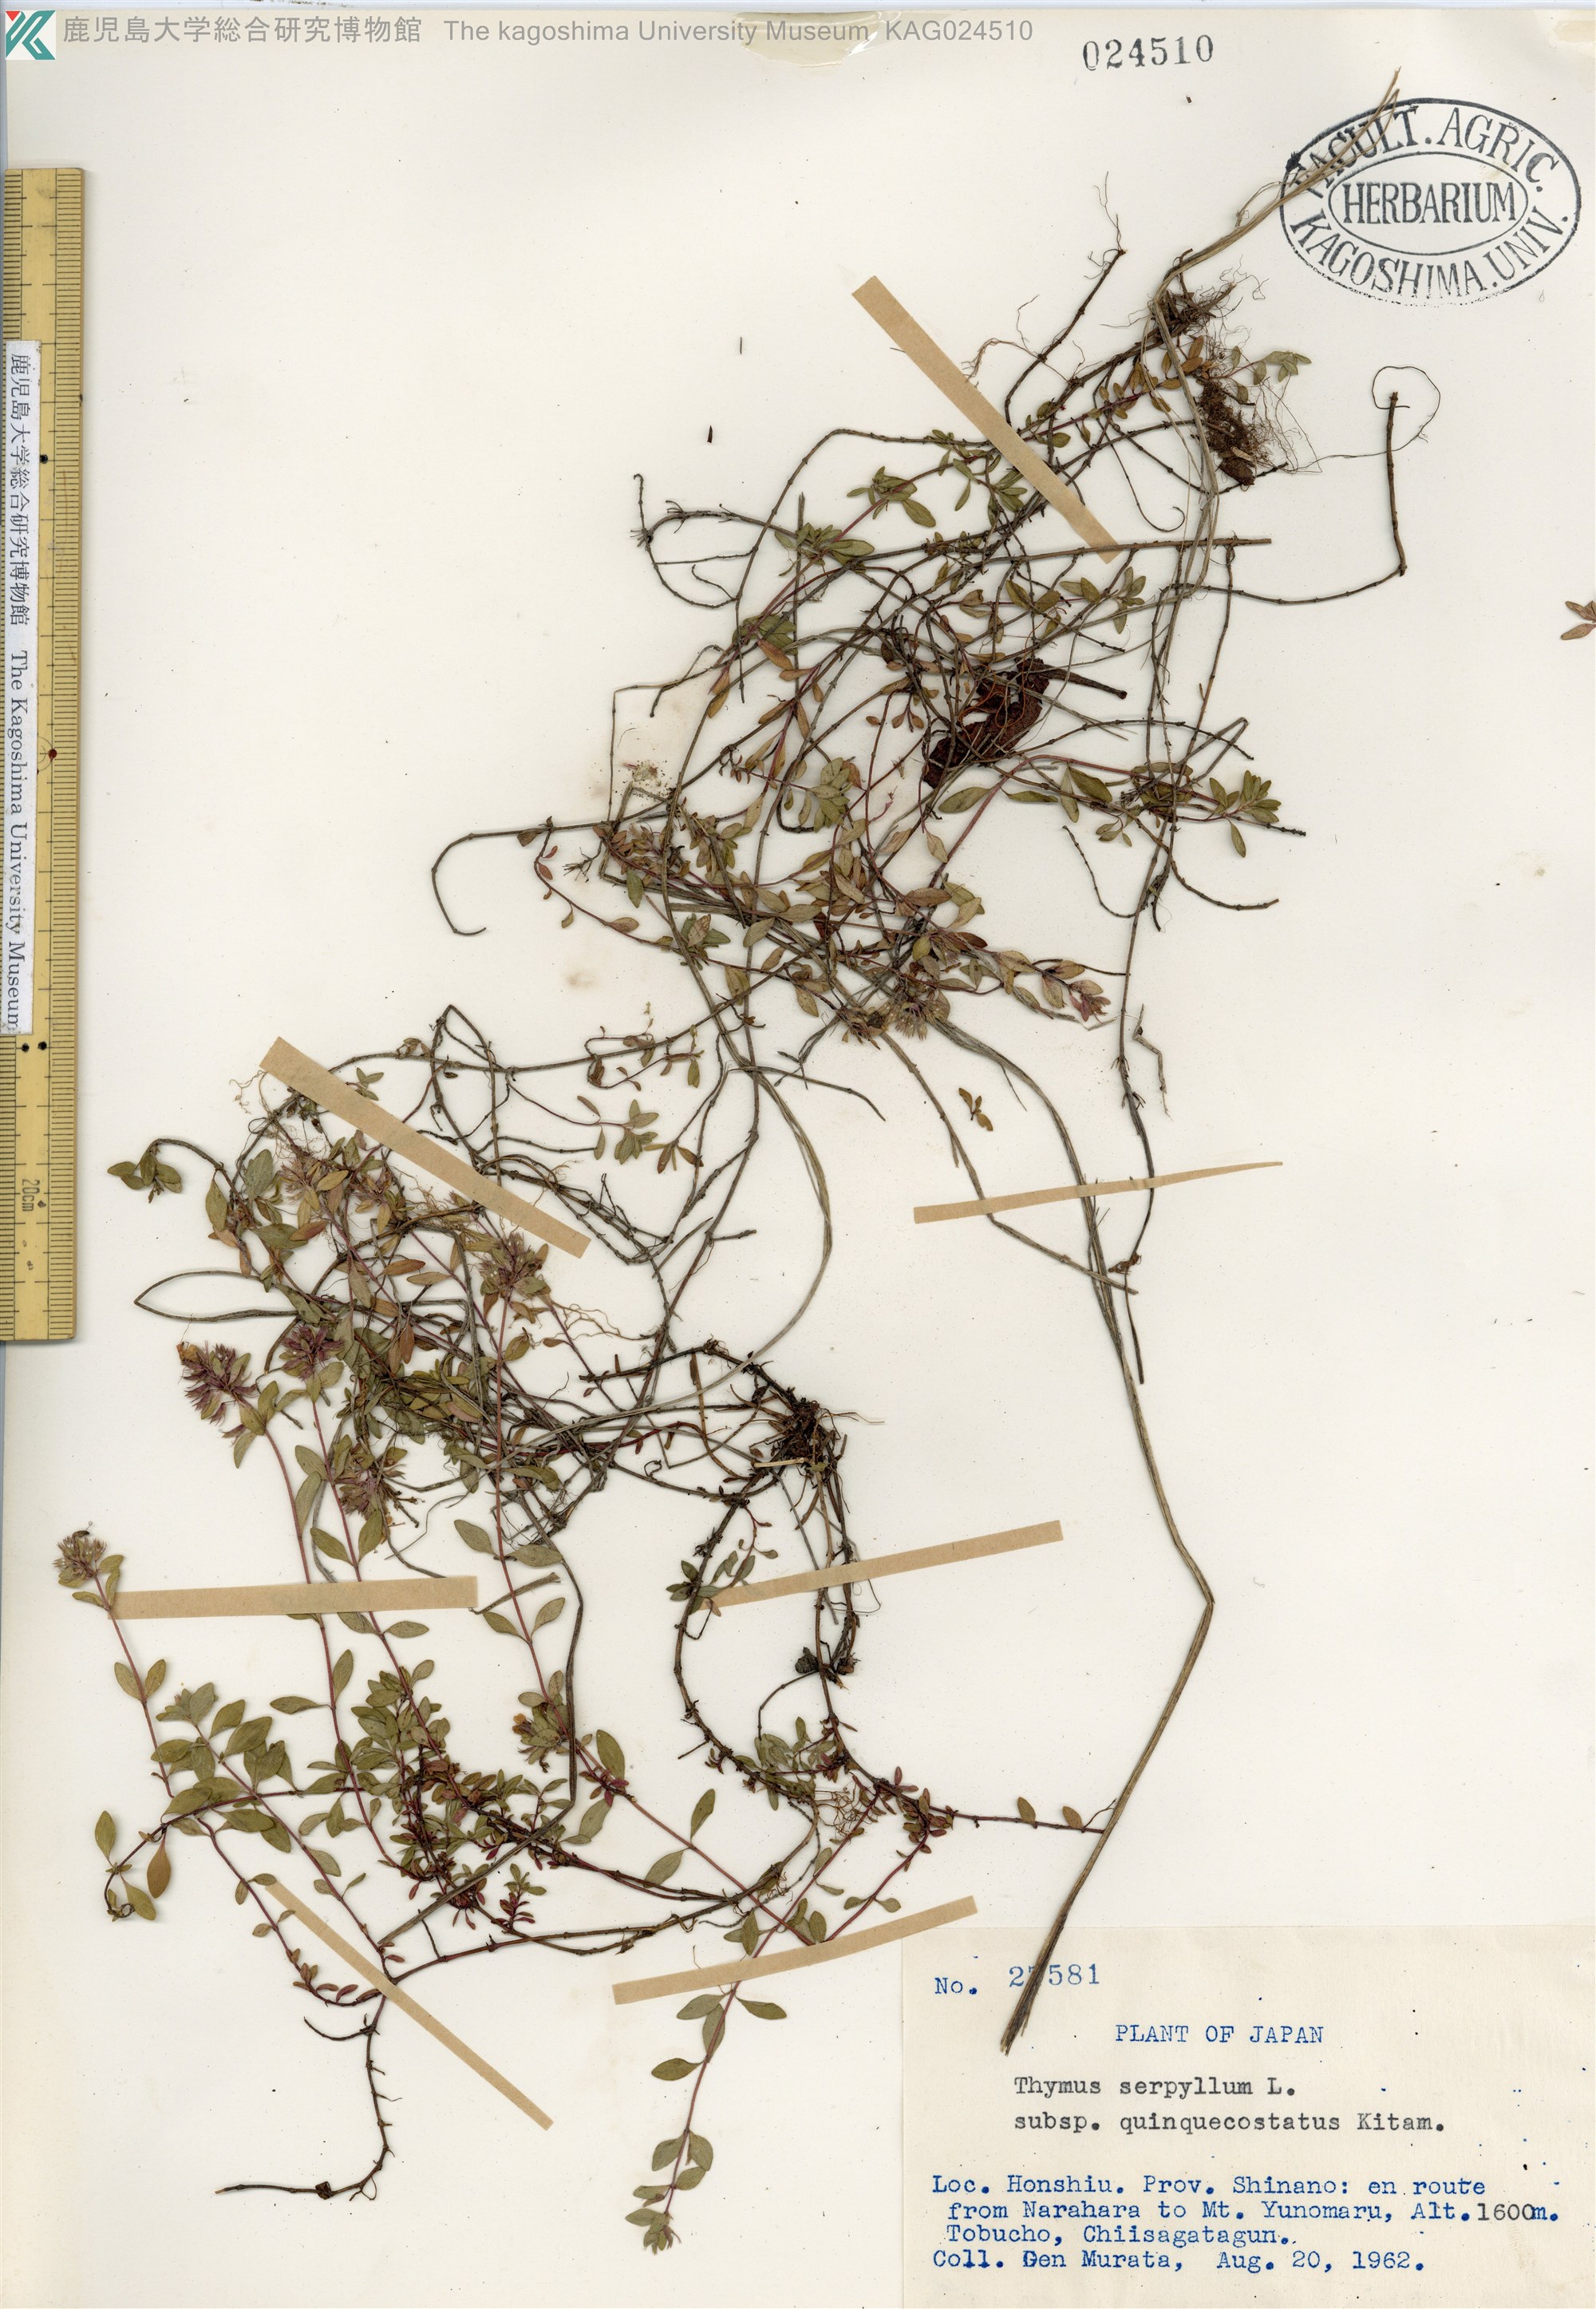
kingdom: Plantae
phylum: Tracheophyta
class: Magnoliopsida
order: Lamiales
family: Lamiaceae
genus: Thymus
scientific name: Thymus quinquecostatus
